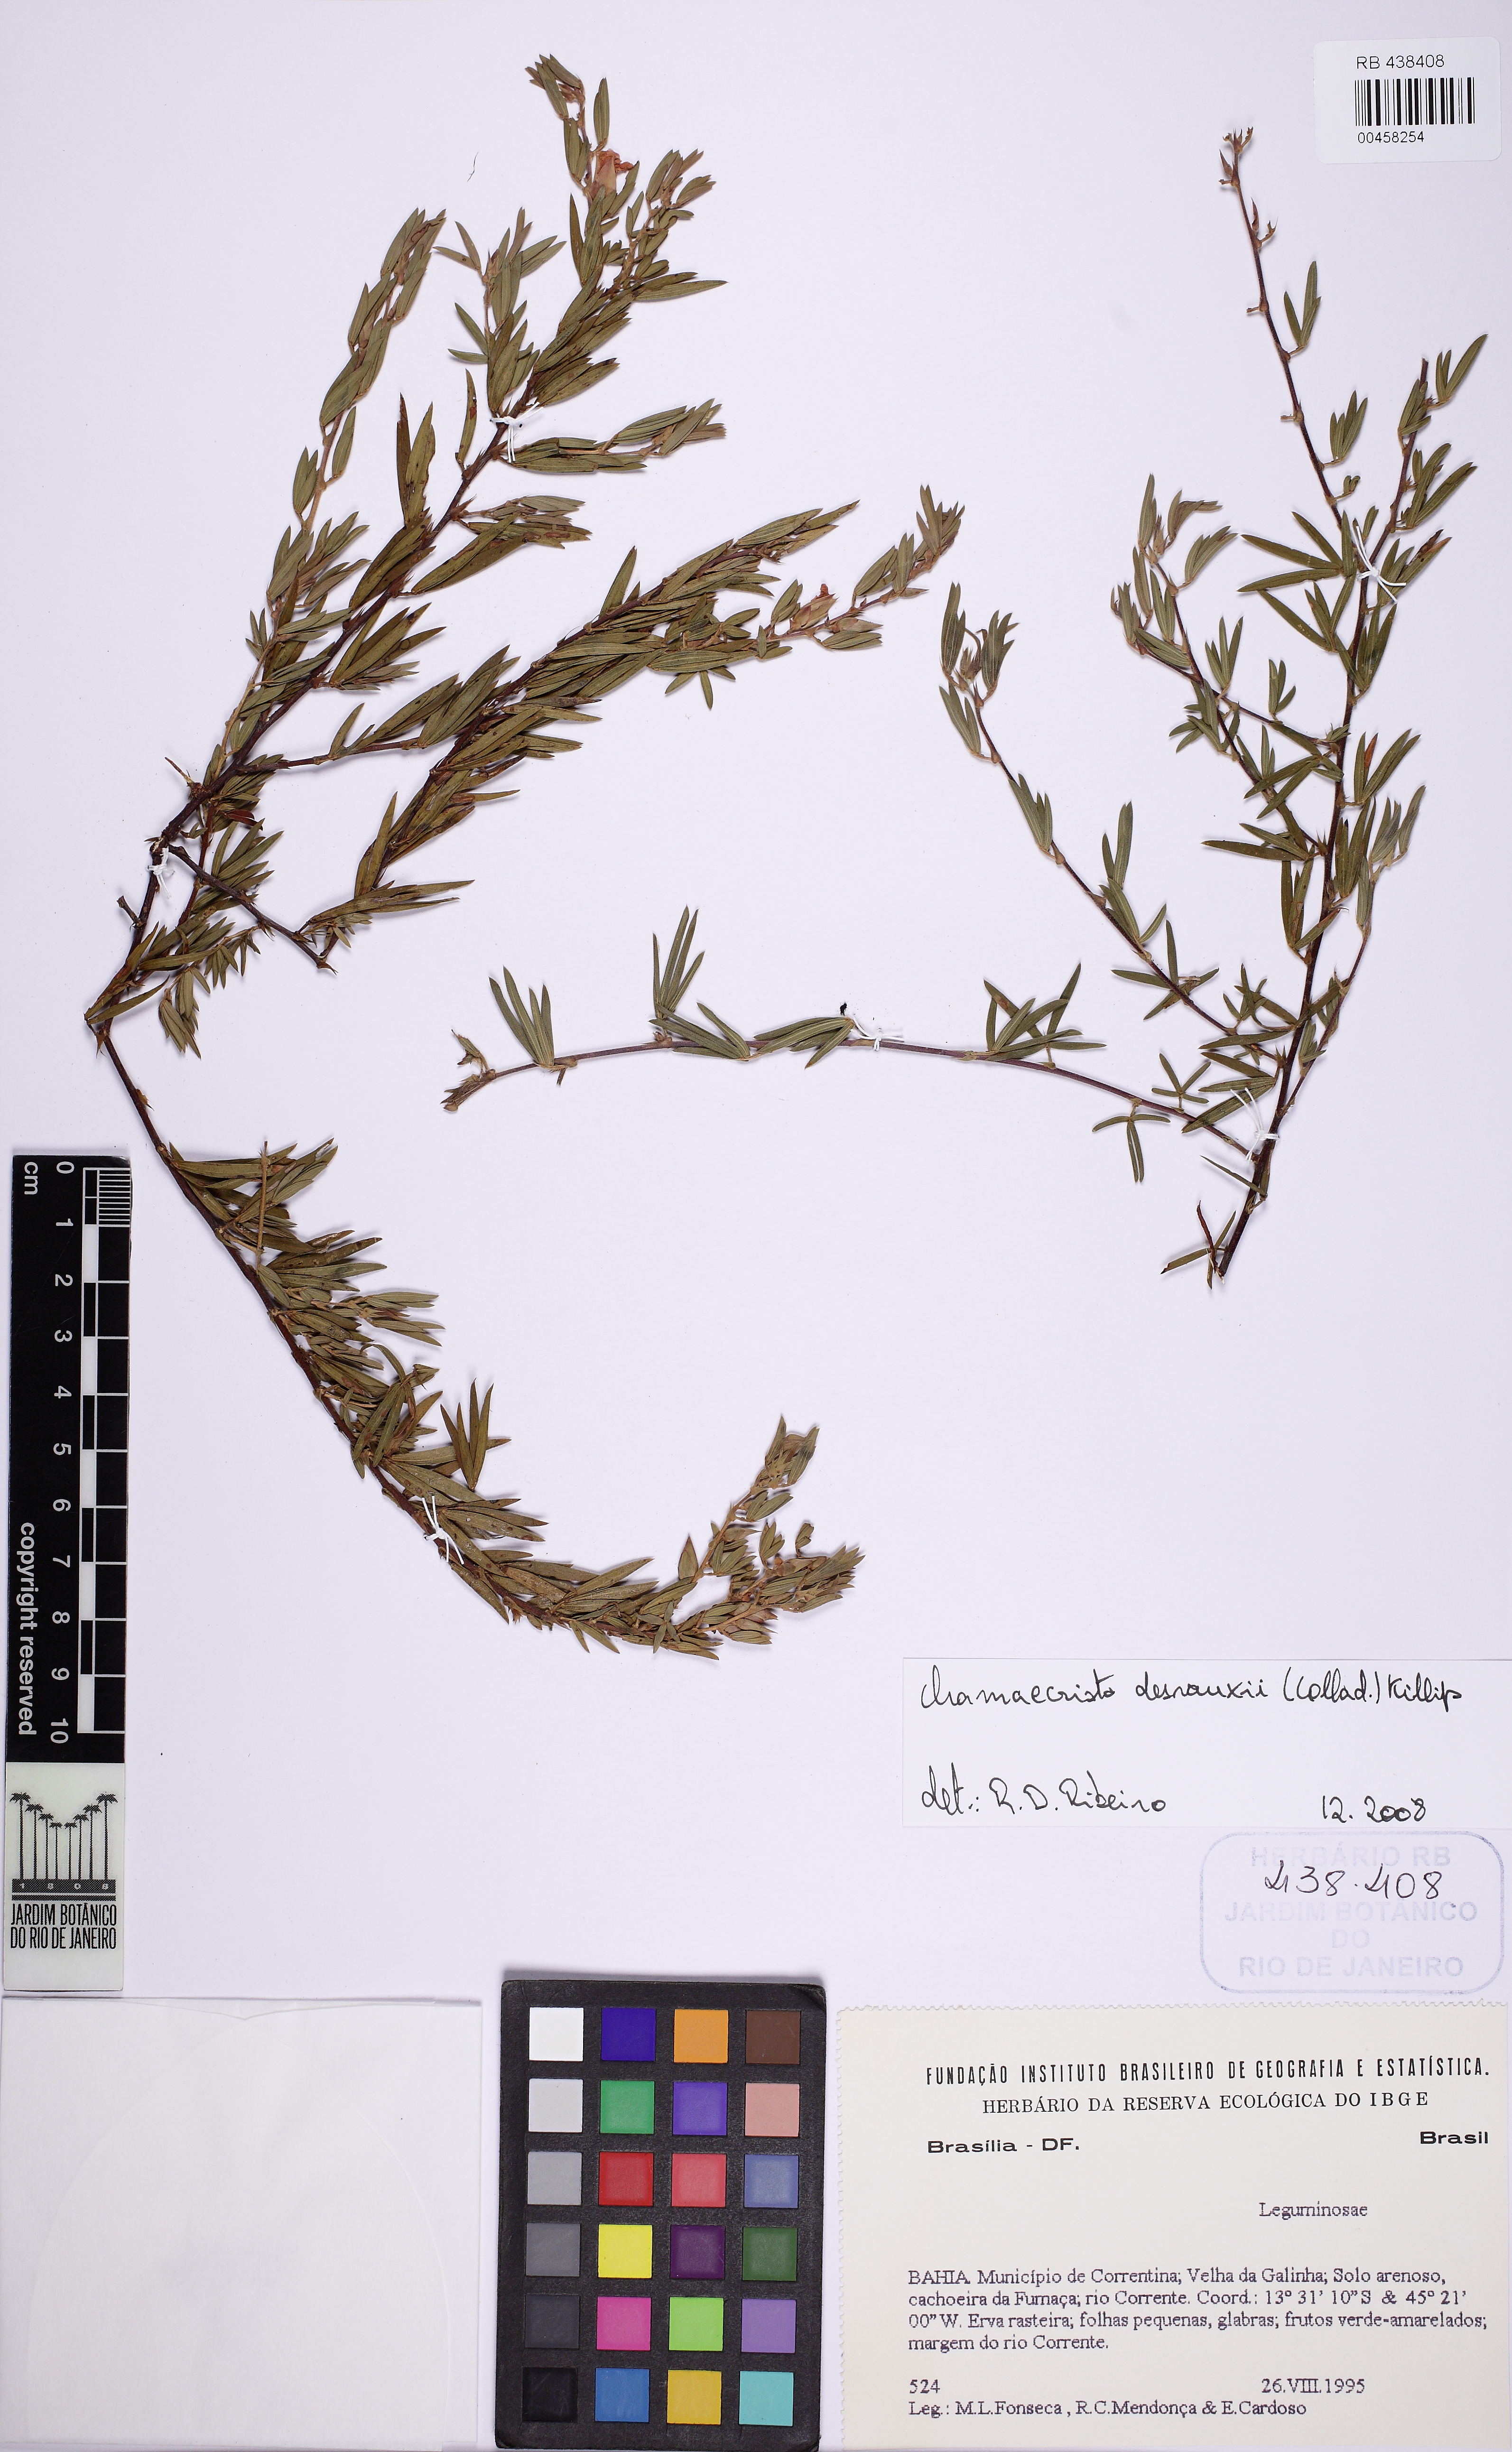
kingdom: Plantae
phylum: Tracheophyta
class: Magnoliopsida
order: Fabales
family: Fabaceae
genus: Chamaecrista
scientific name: Chamaecrista desvauxii
